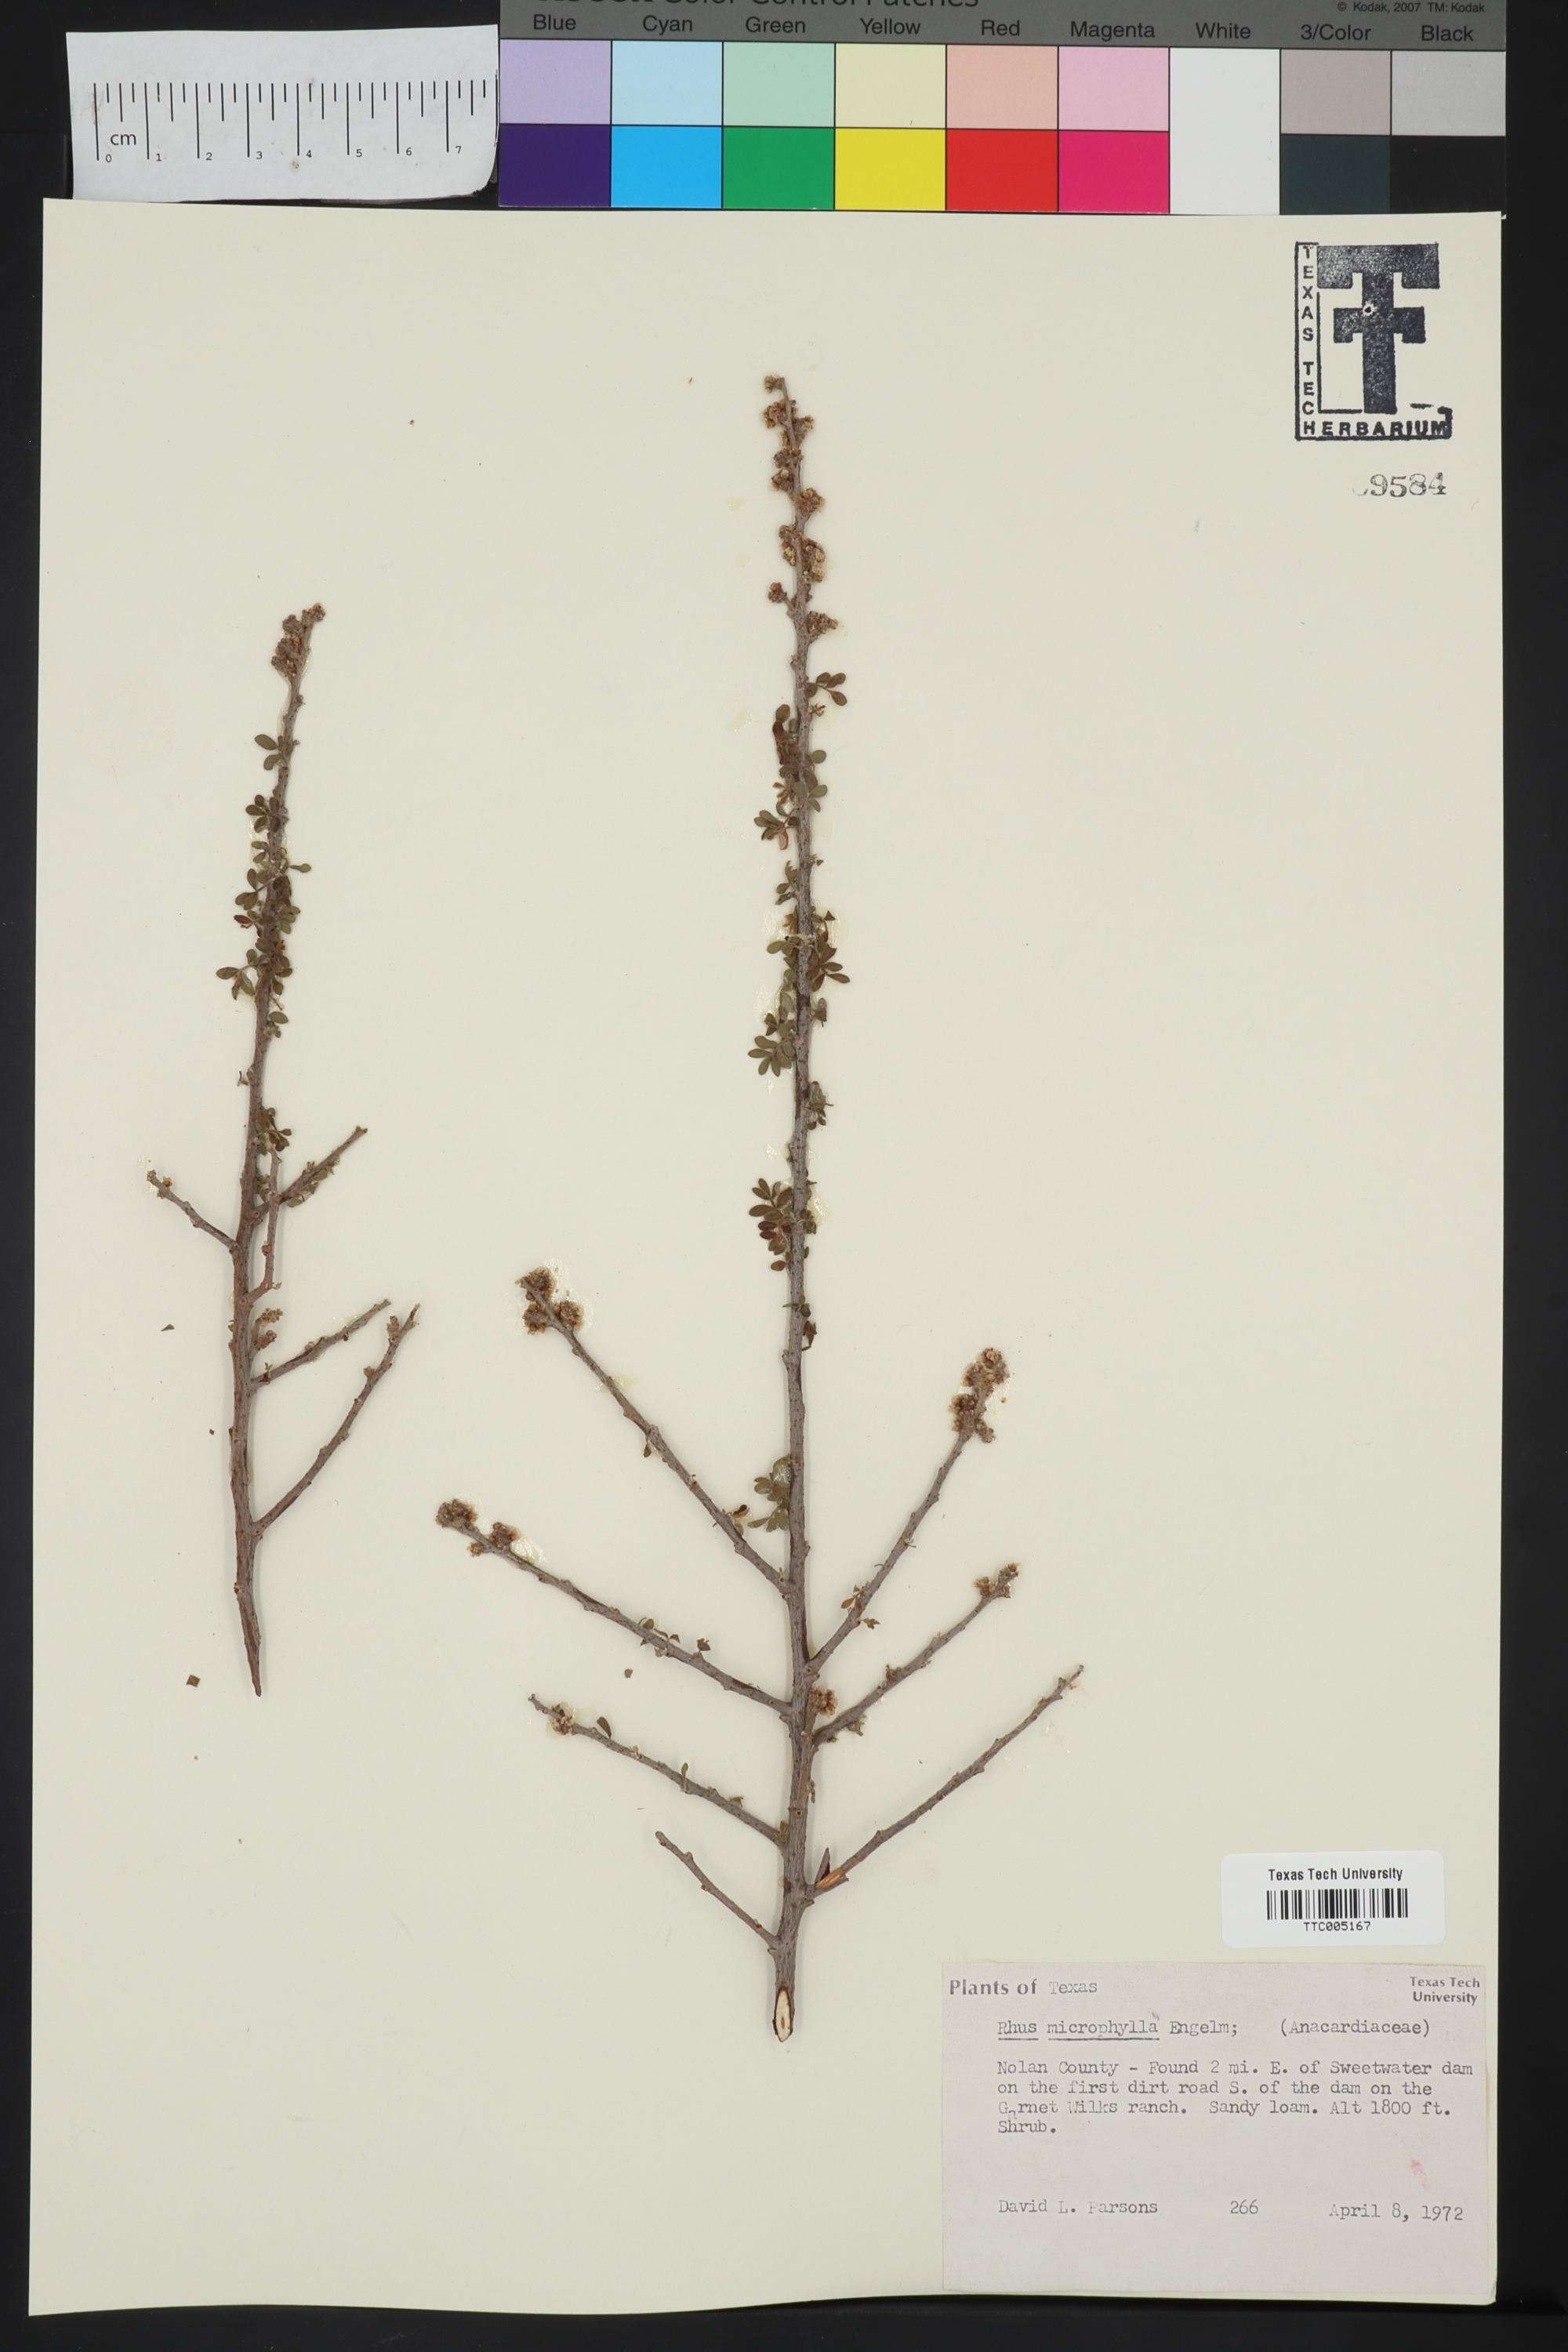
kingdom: Plantae
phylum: Tracheophyta
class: Magnoliopsida
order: Sapindales
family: Anacardiaceae
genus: Rhus
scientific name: Rhus microphylla
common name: Desert sumac
